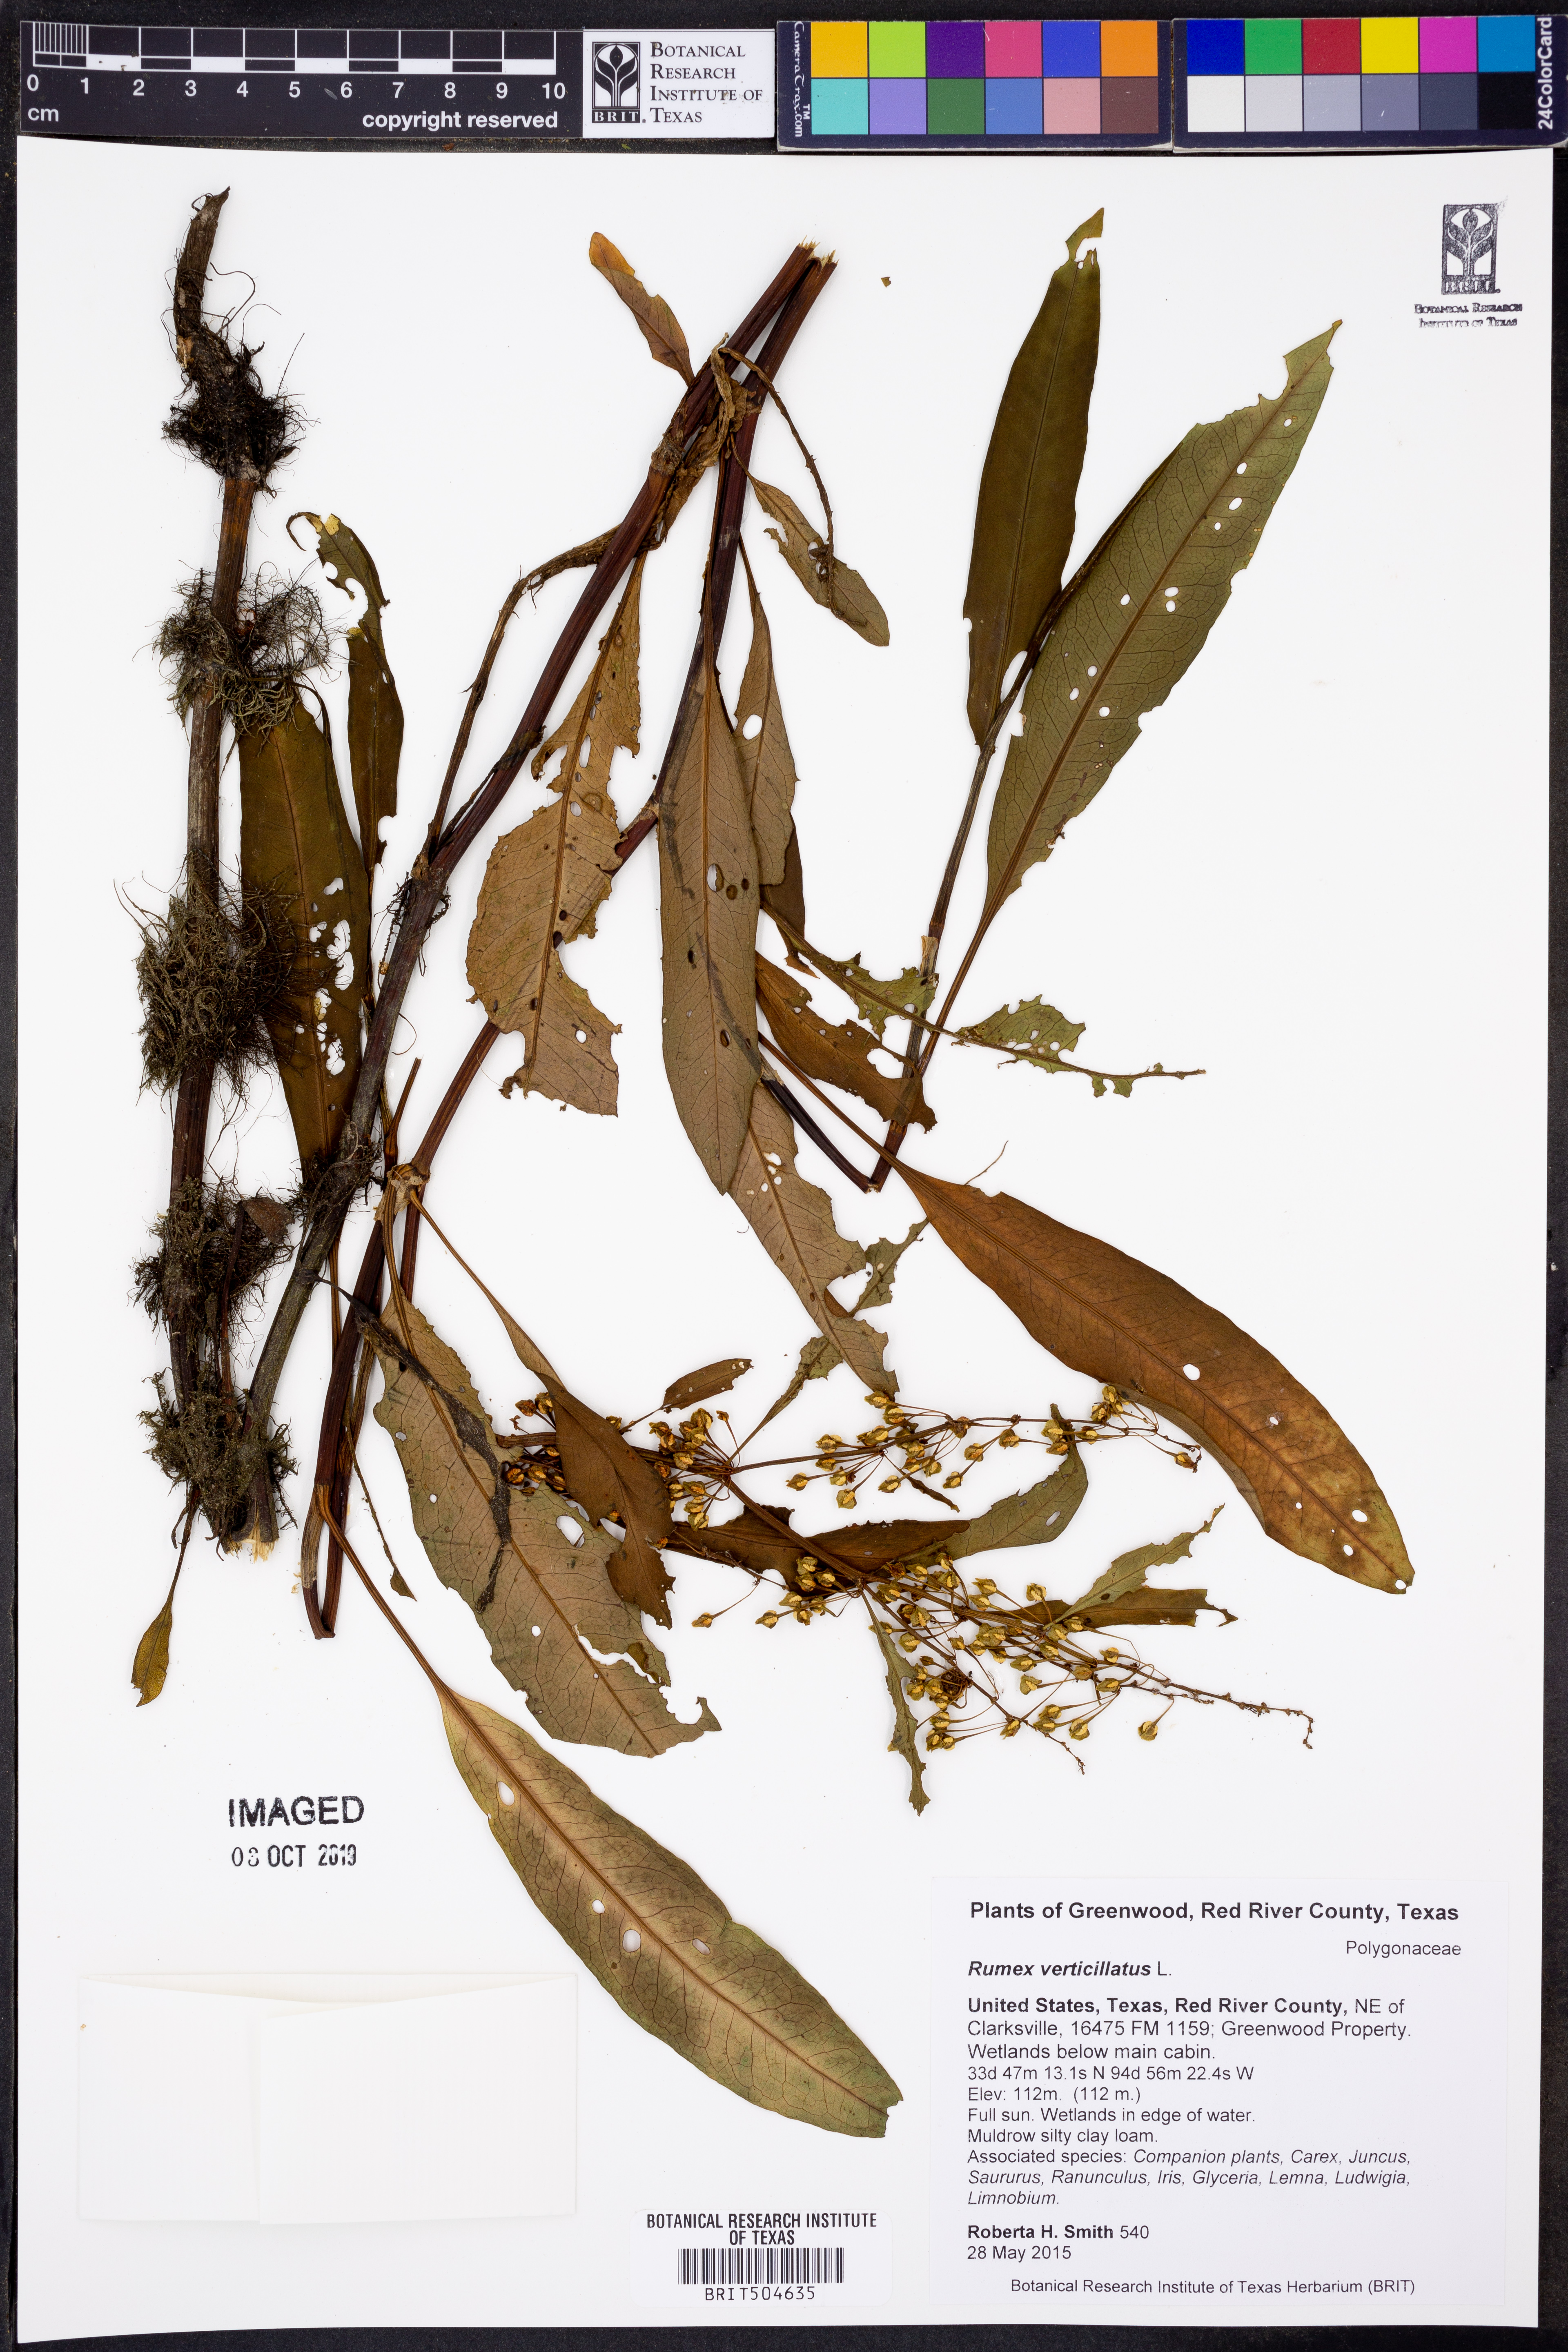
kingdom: Plantae
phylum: Tracheophyta
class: Magnoliopsida
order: Caryophyllales
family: Polygonaceae
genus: Rumex
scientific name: Rumex verticillatus
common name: Swamp dock
